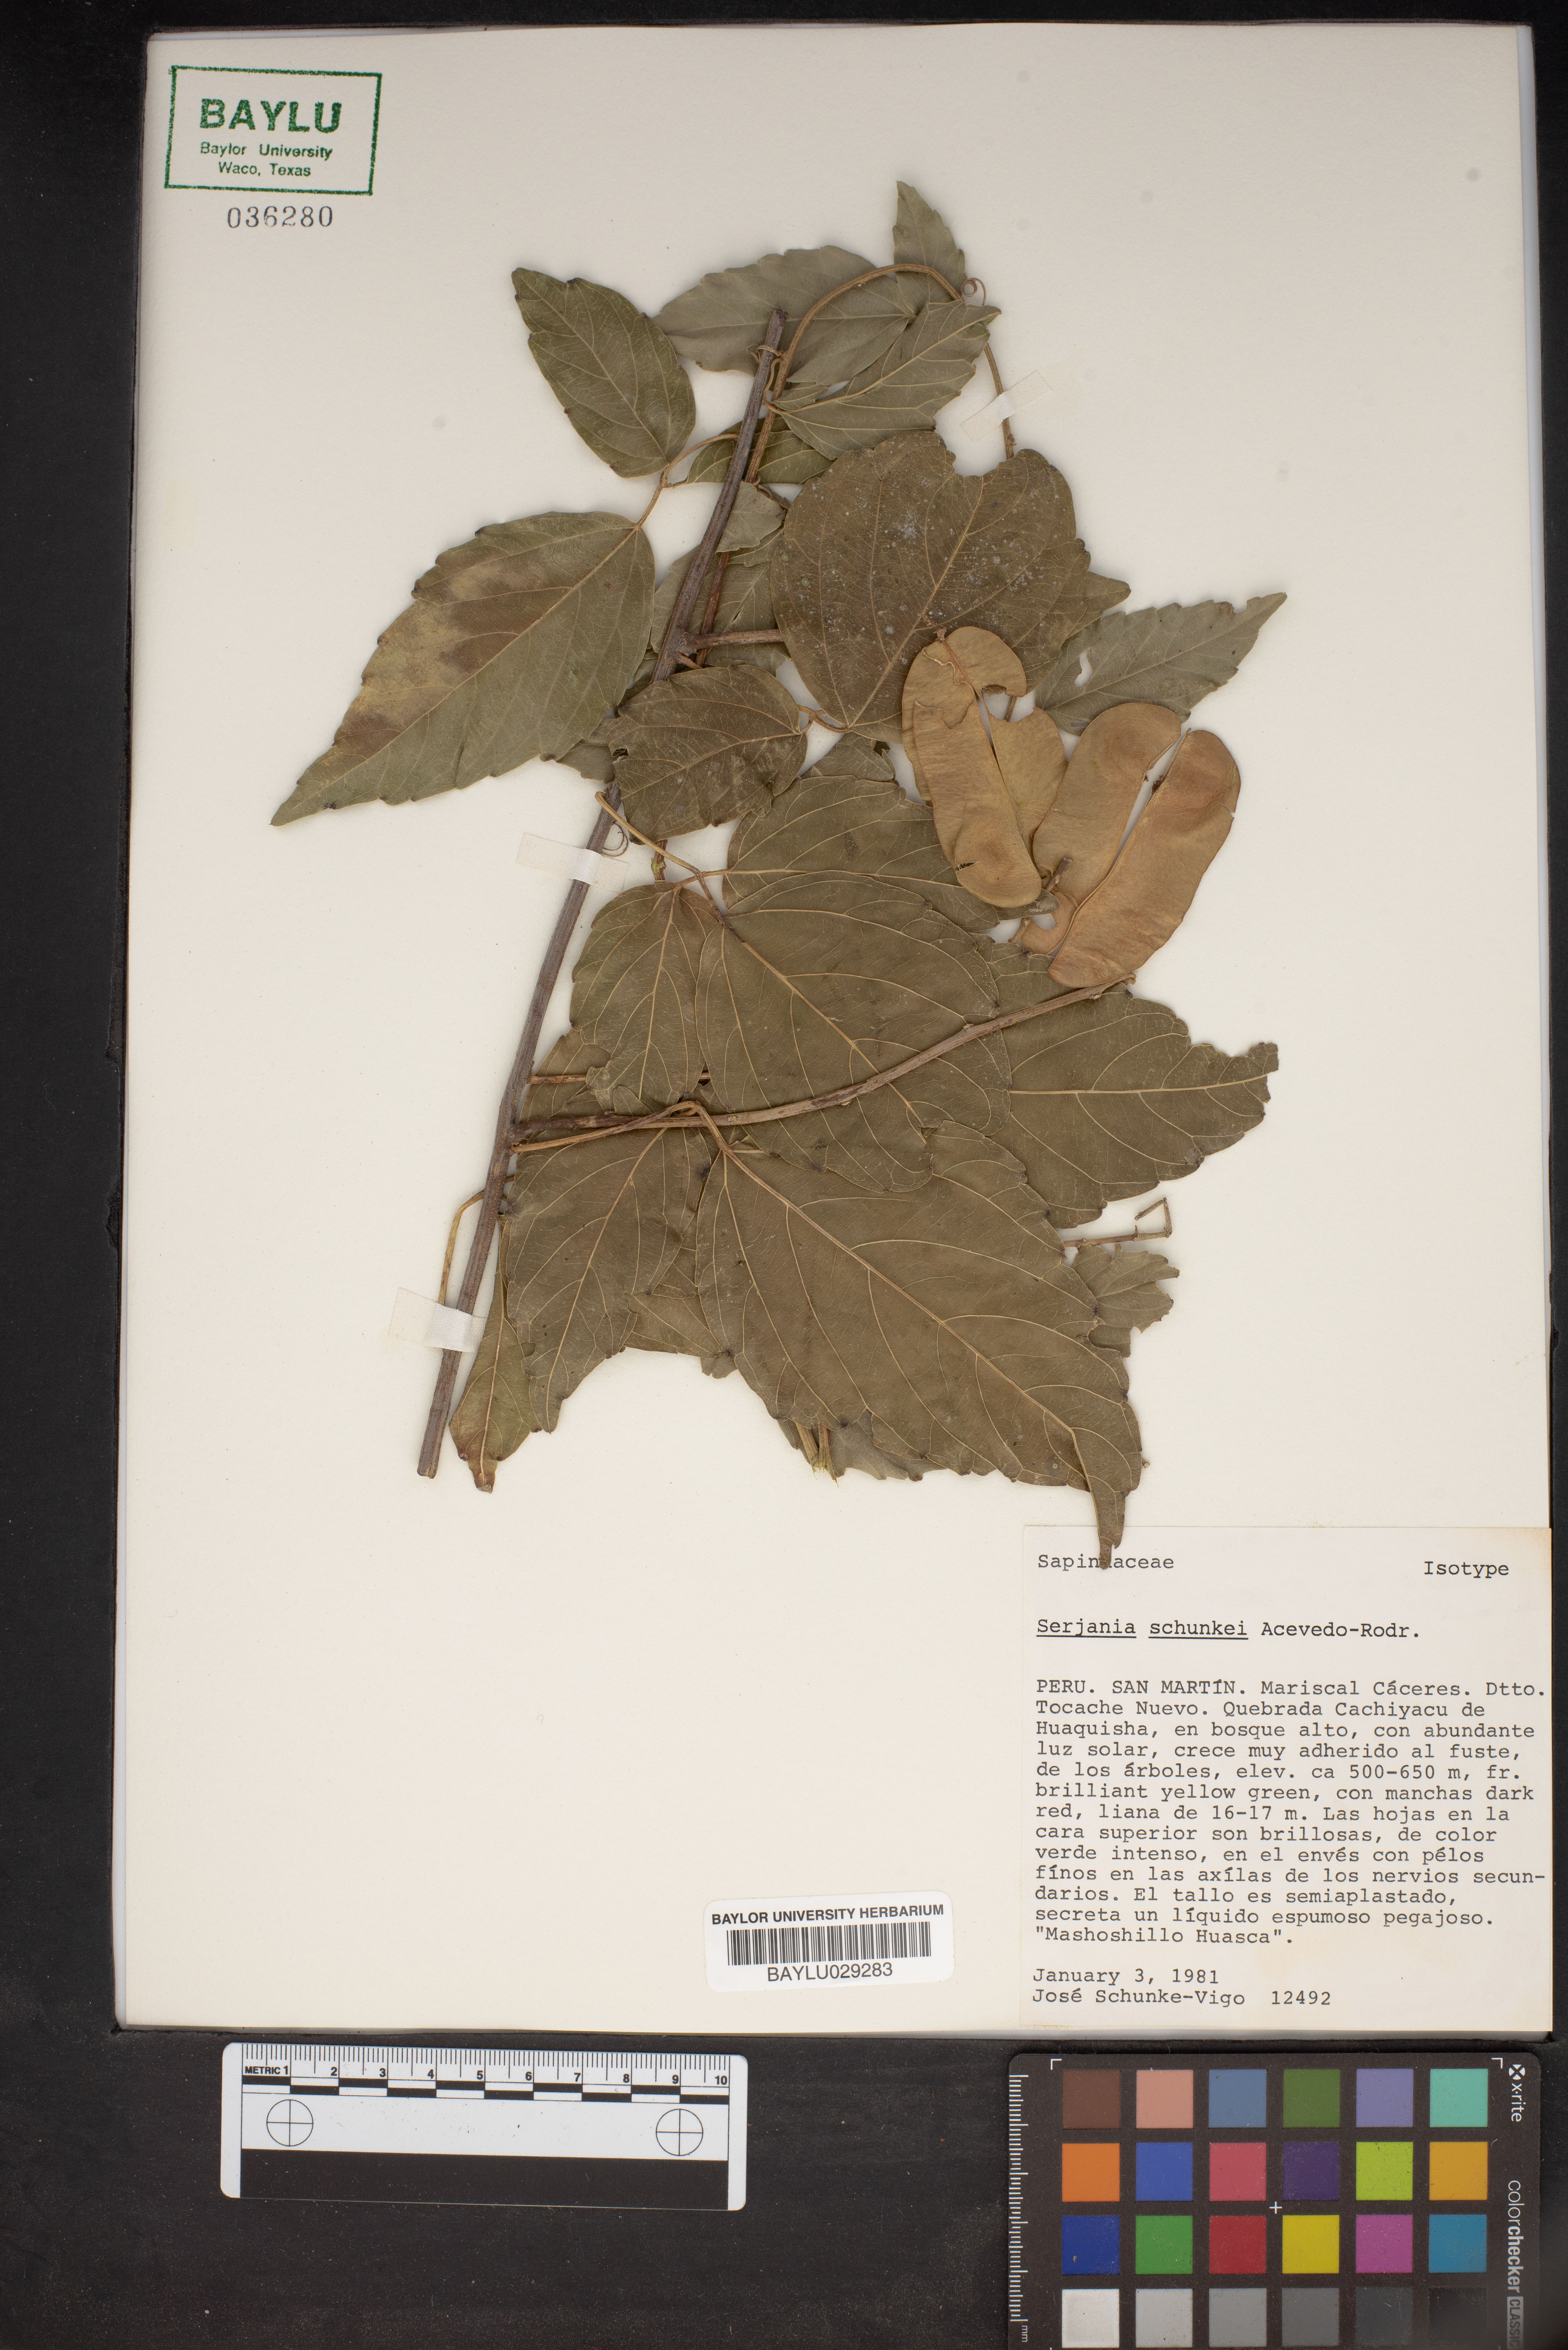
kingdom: Plantae
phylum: Tracheophyta
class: Magnoliopsida
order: Sapindales
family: Sapindaceae
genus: Lophostigma
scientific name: Lophostigma schunkei
